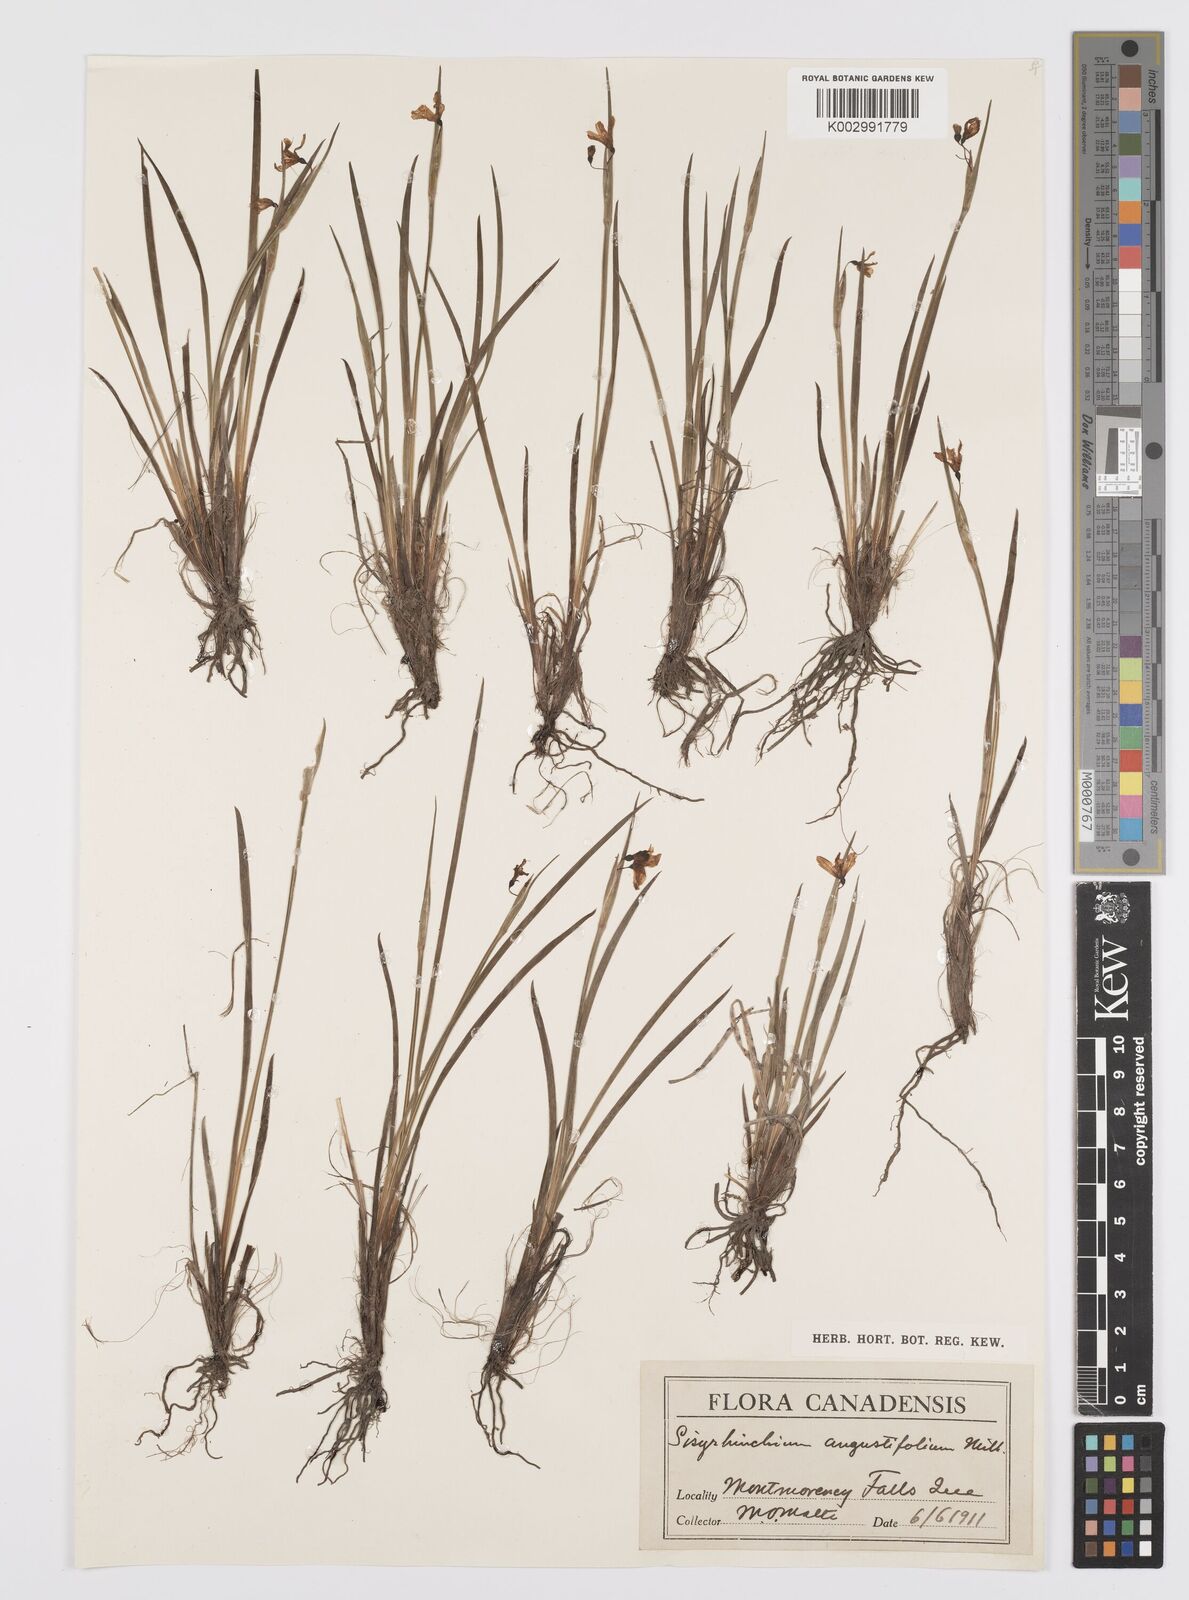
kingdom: Plantae
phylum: Tracheophyta
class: Liliopsida
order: Asparagales
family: Iridaceae
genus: Sisyrinchium
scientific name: Sisyrinchium bermudiana
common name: Blue-eyed-grass
